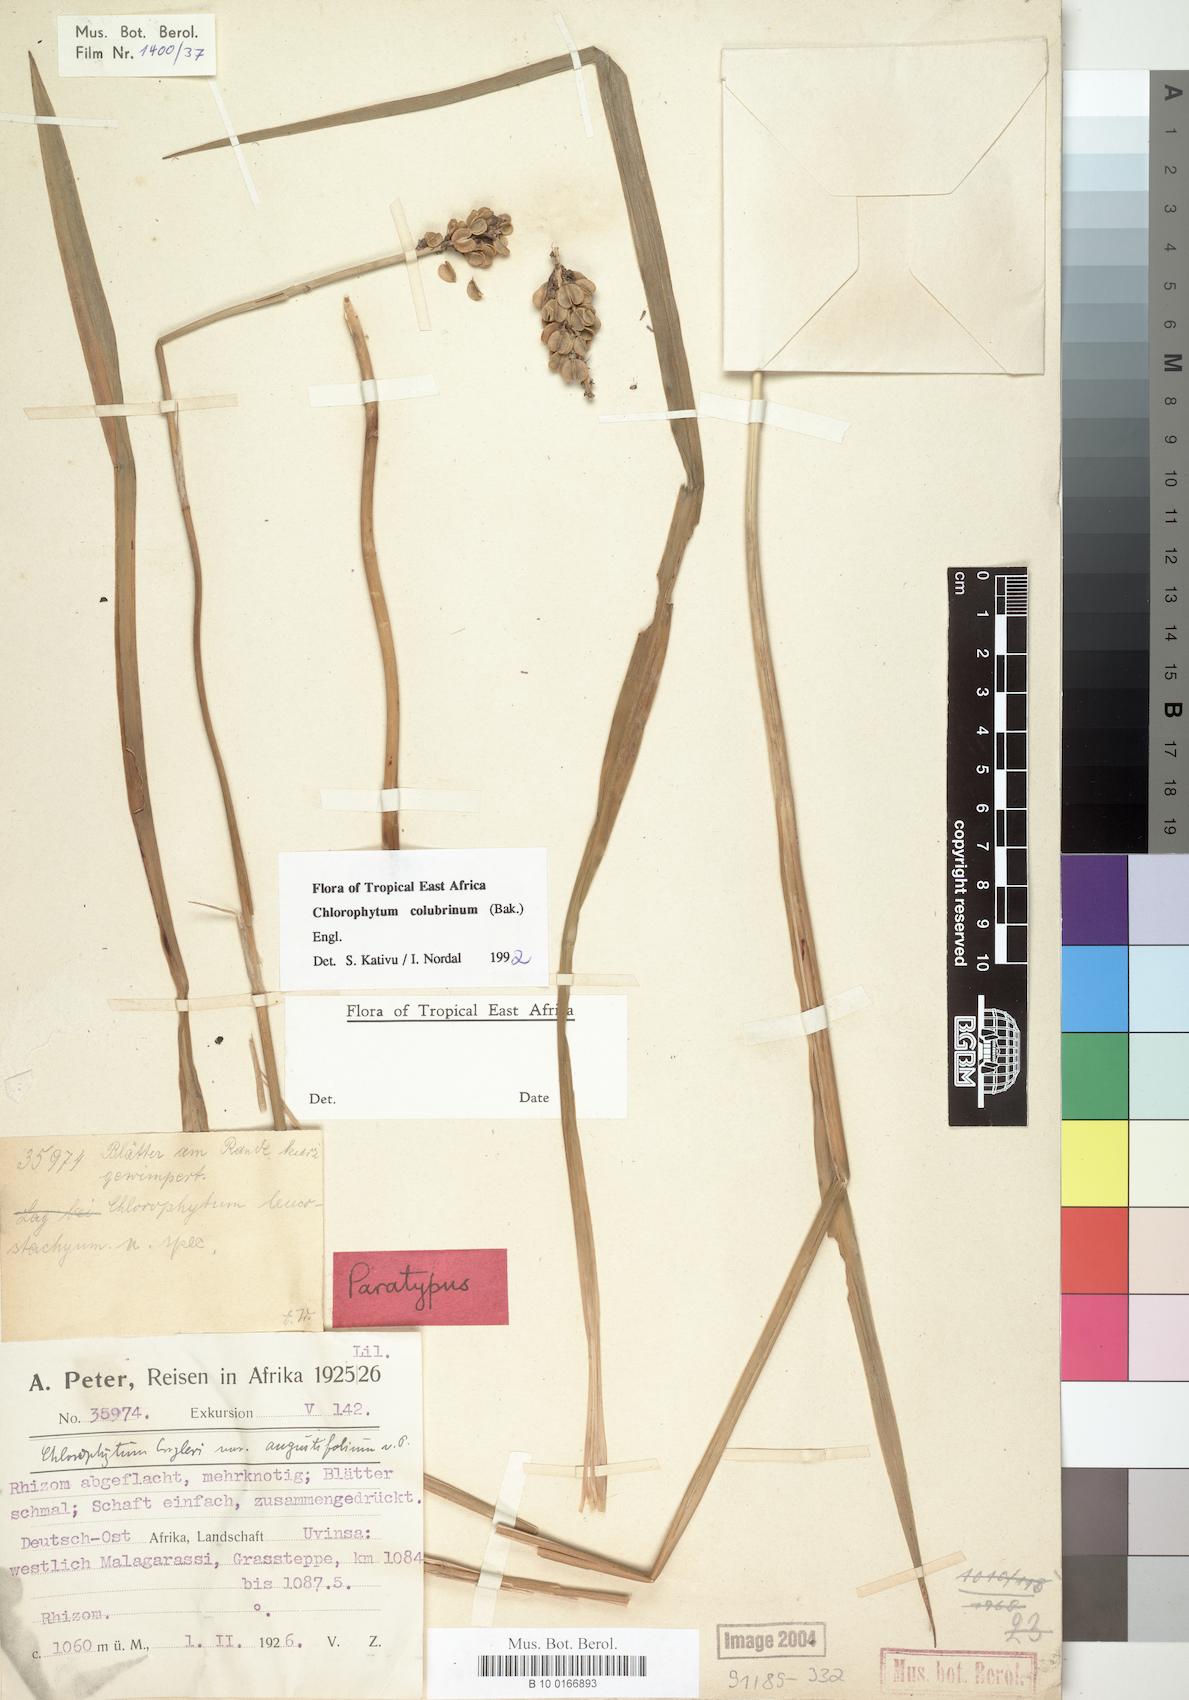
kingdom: Plantae
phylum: Tracheophyta
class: Liliopsida
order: Asparagales
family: Asparagaceae
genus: Chlorophytum
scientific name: Chlorophytum colubrinum
